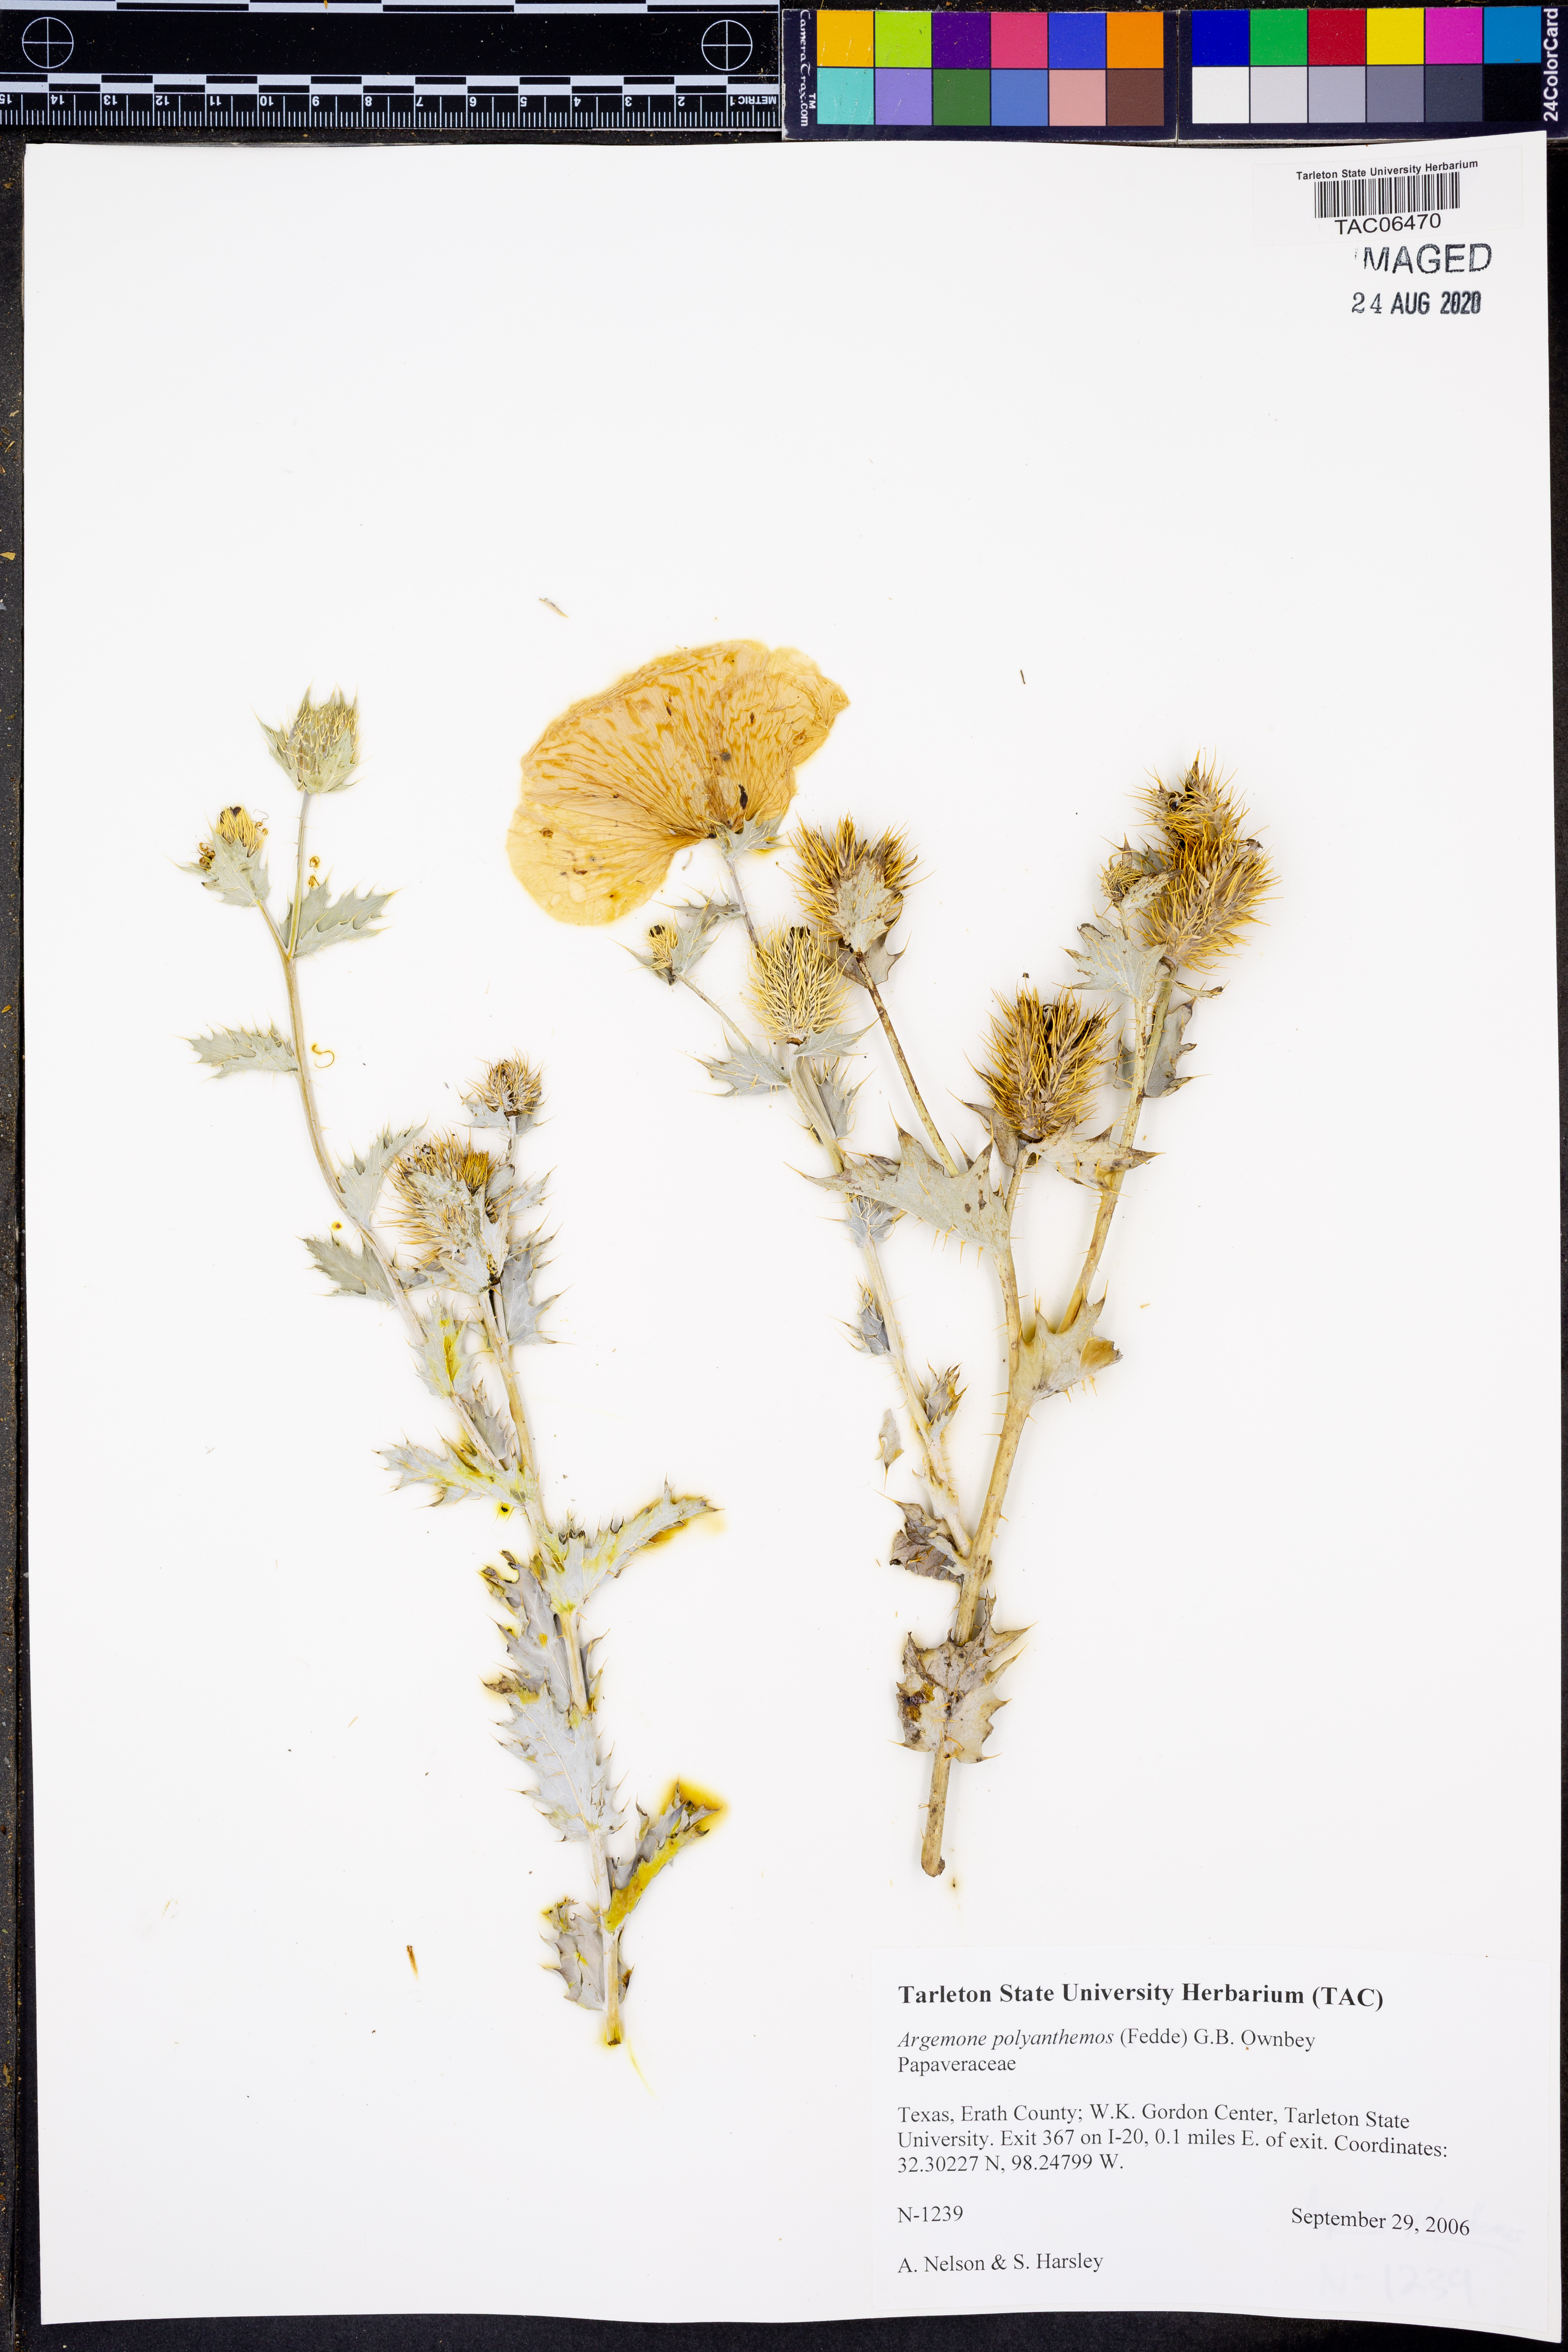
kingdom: Plantae
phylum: Tracheophyta
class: Magnoliopsida
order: Ranunculales
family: Papaveraceae
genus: Argemone
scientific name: Argemone polyanthemos
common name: Plains prickly-poppy
